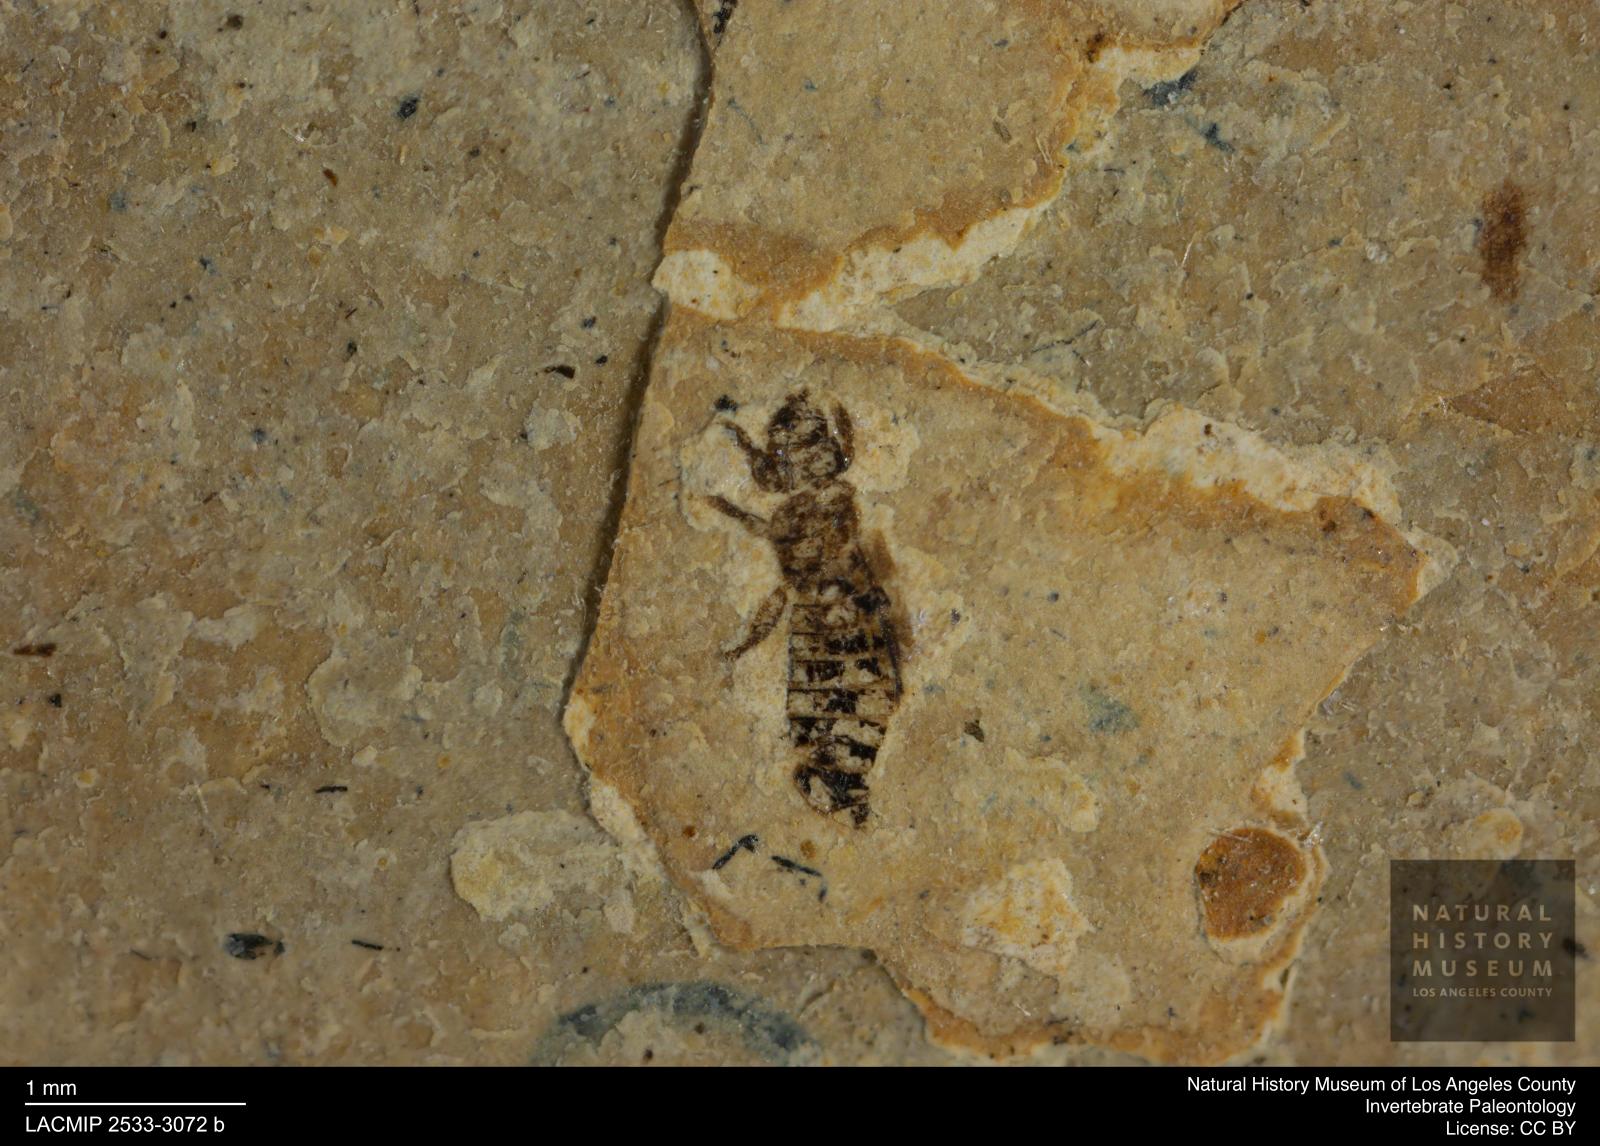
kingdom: Animalia
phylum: Arthropoda
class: Insecta
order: Thysanoptera
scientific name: Thysanoptera
